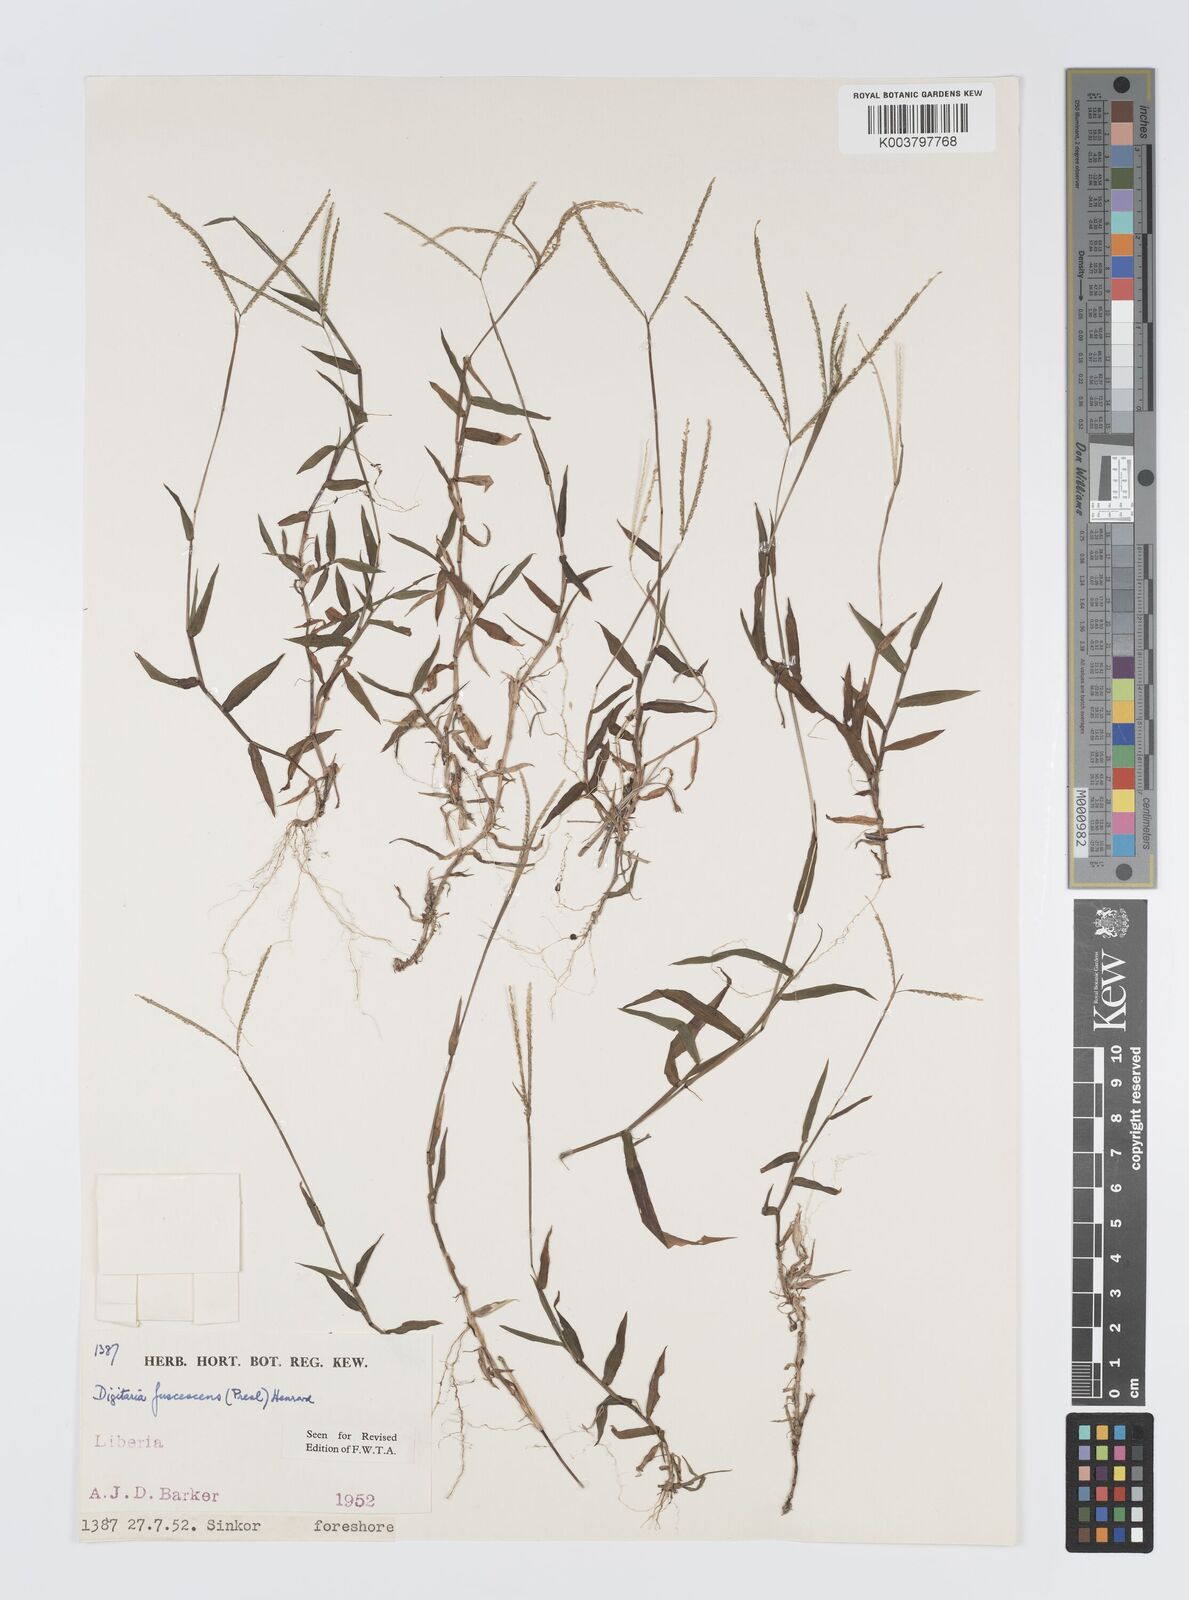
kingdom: Plantae
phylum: Tracheophyta
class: Liliopsida
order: Poales
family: Poaceae
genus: Digitaria
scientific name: Digitaria fuscescens
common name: Yellow crabgrass
